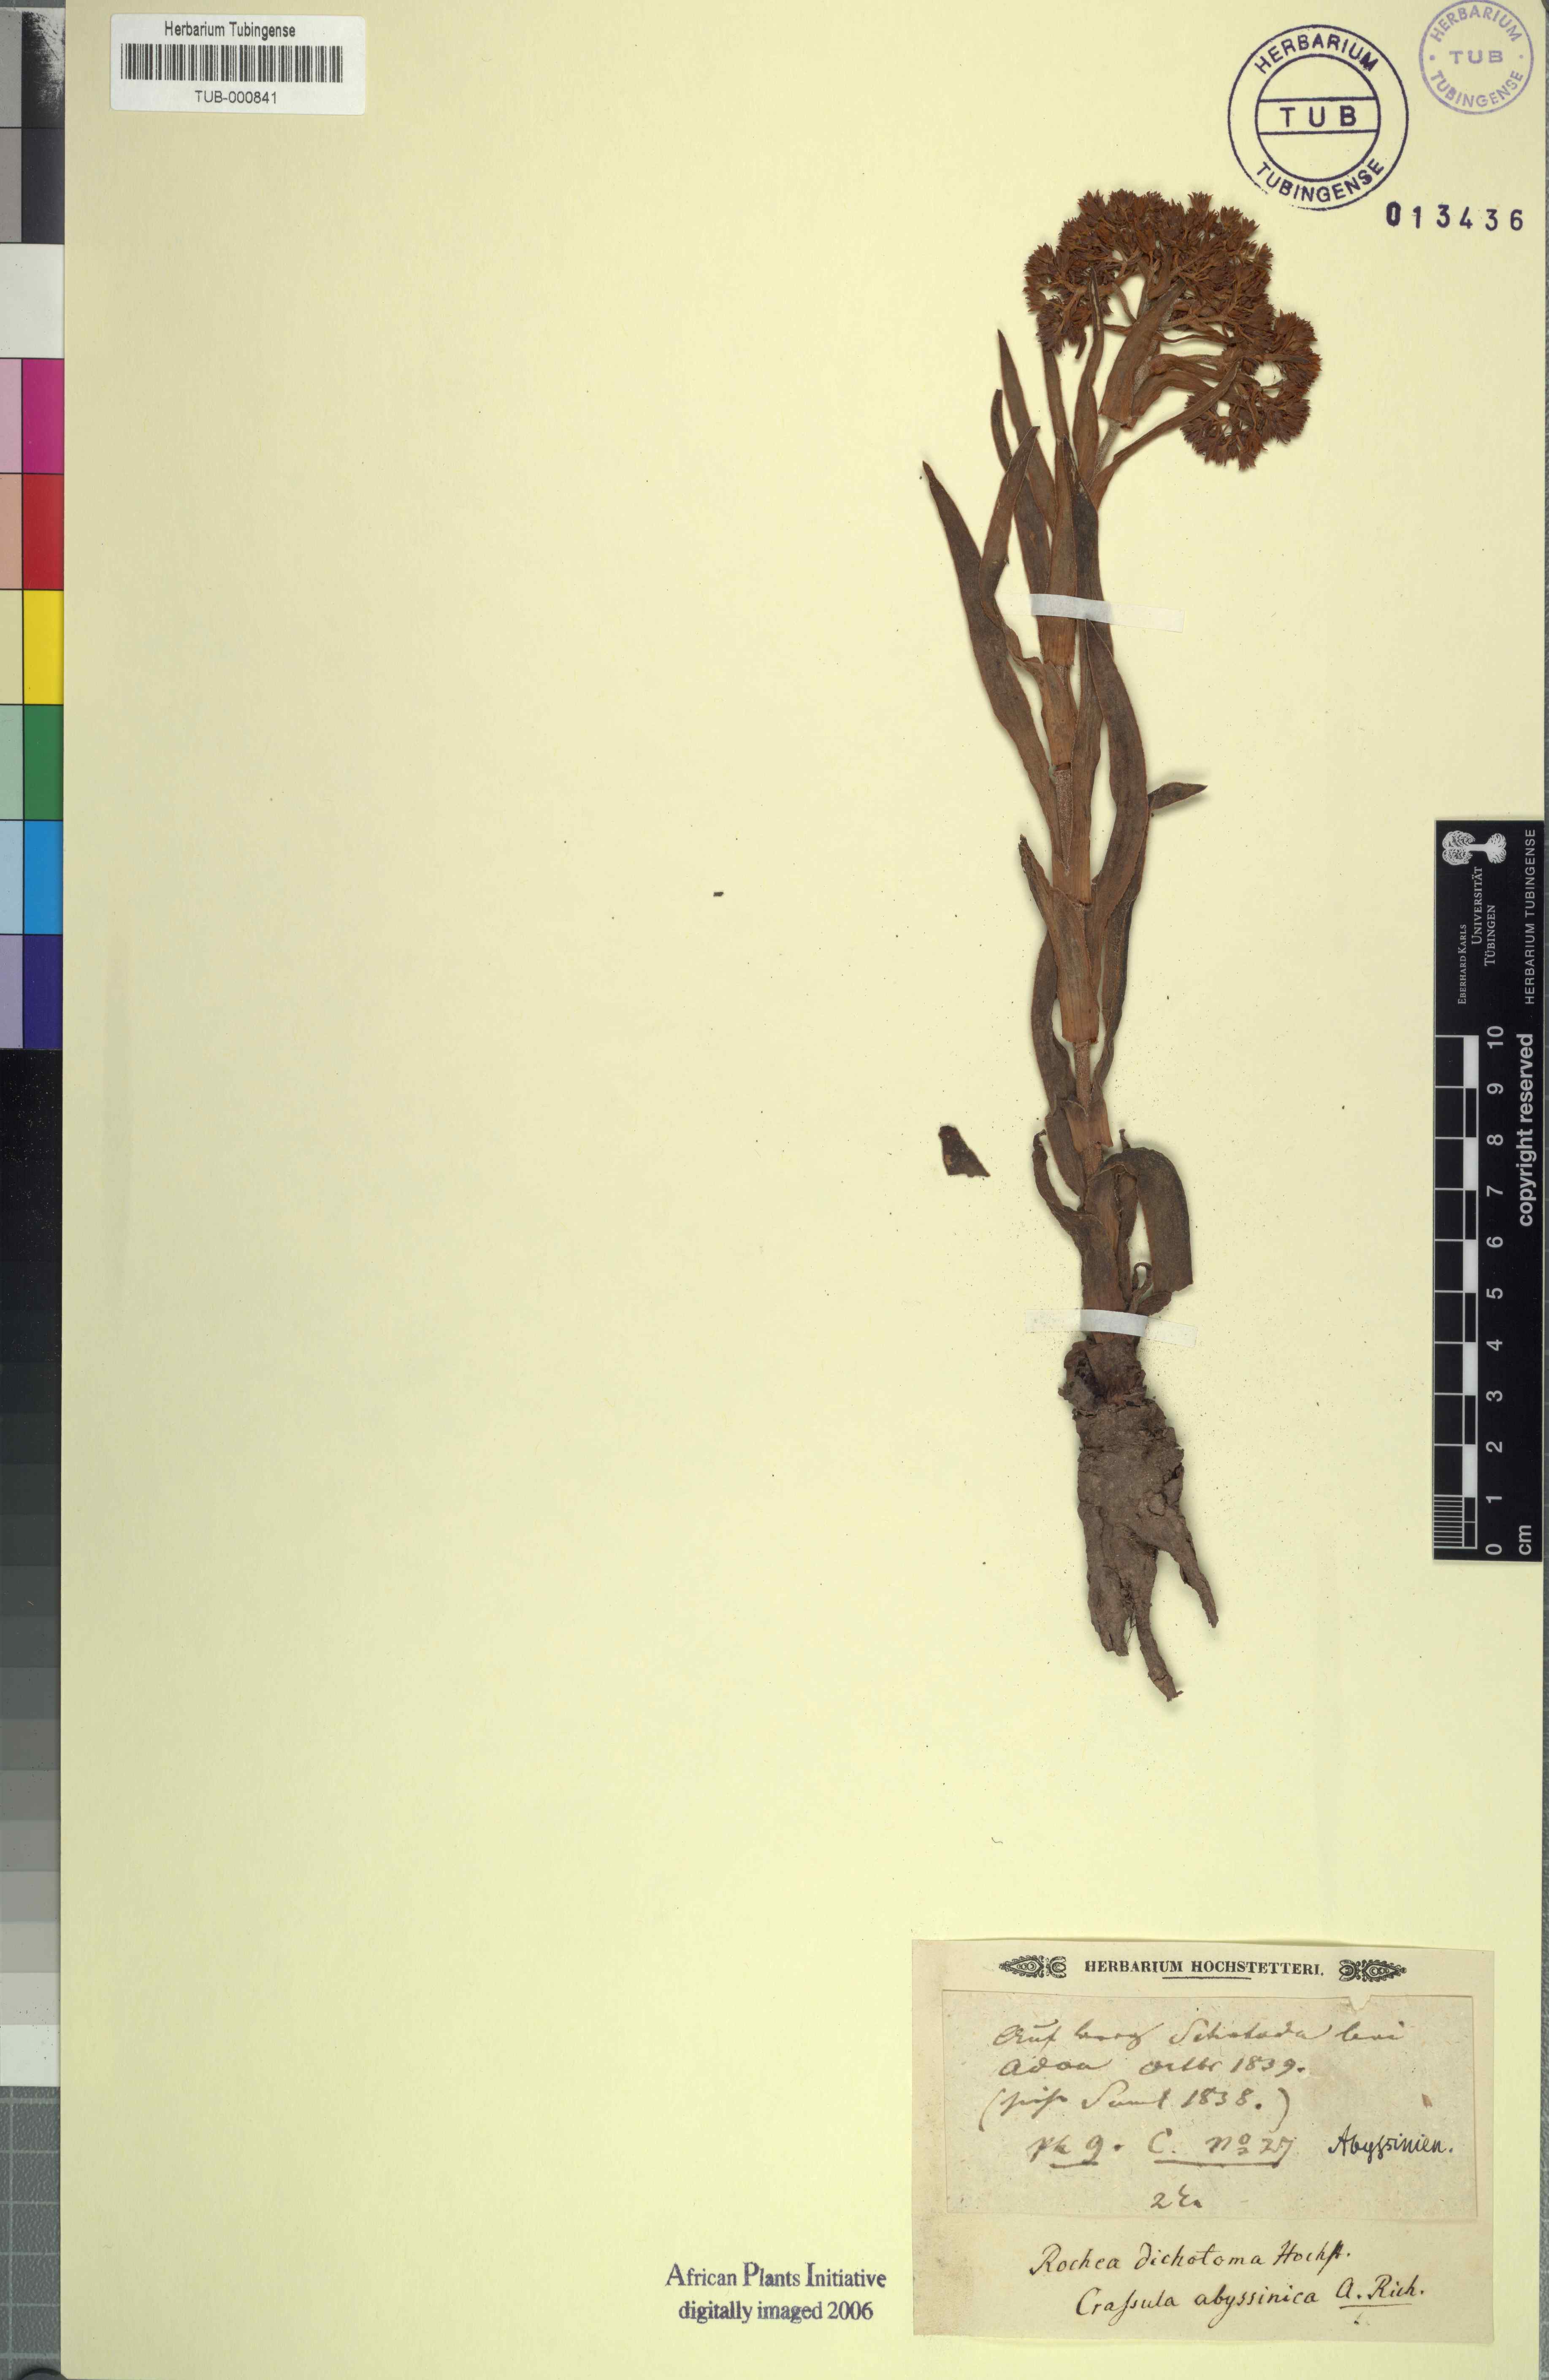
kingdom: Plantae
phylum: Tracheophyta
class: Magnoliopsida
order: Saxifragales
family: Crassulaceae
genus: Crassula
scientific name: Crassula alba
